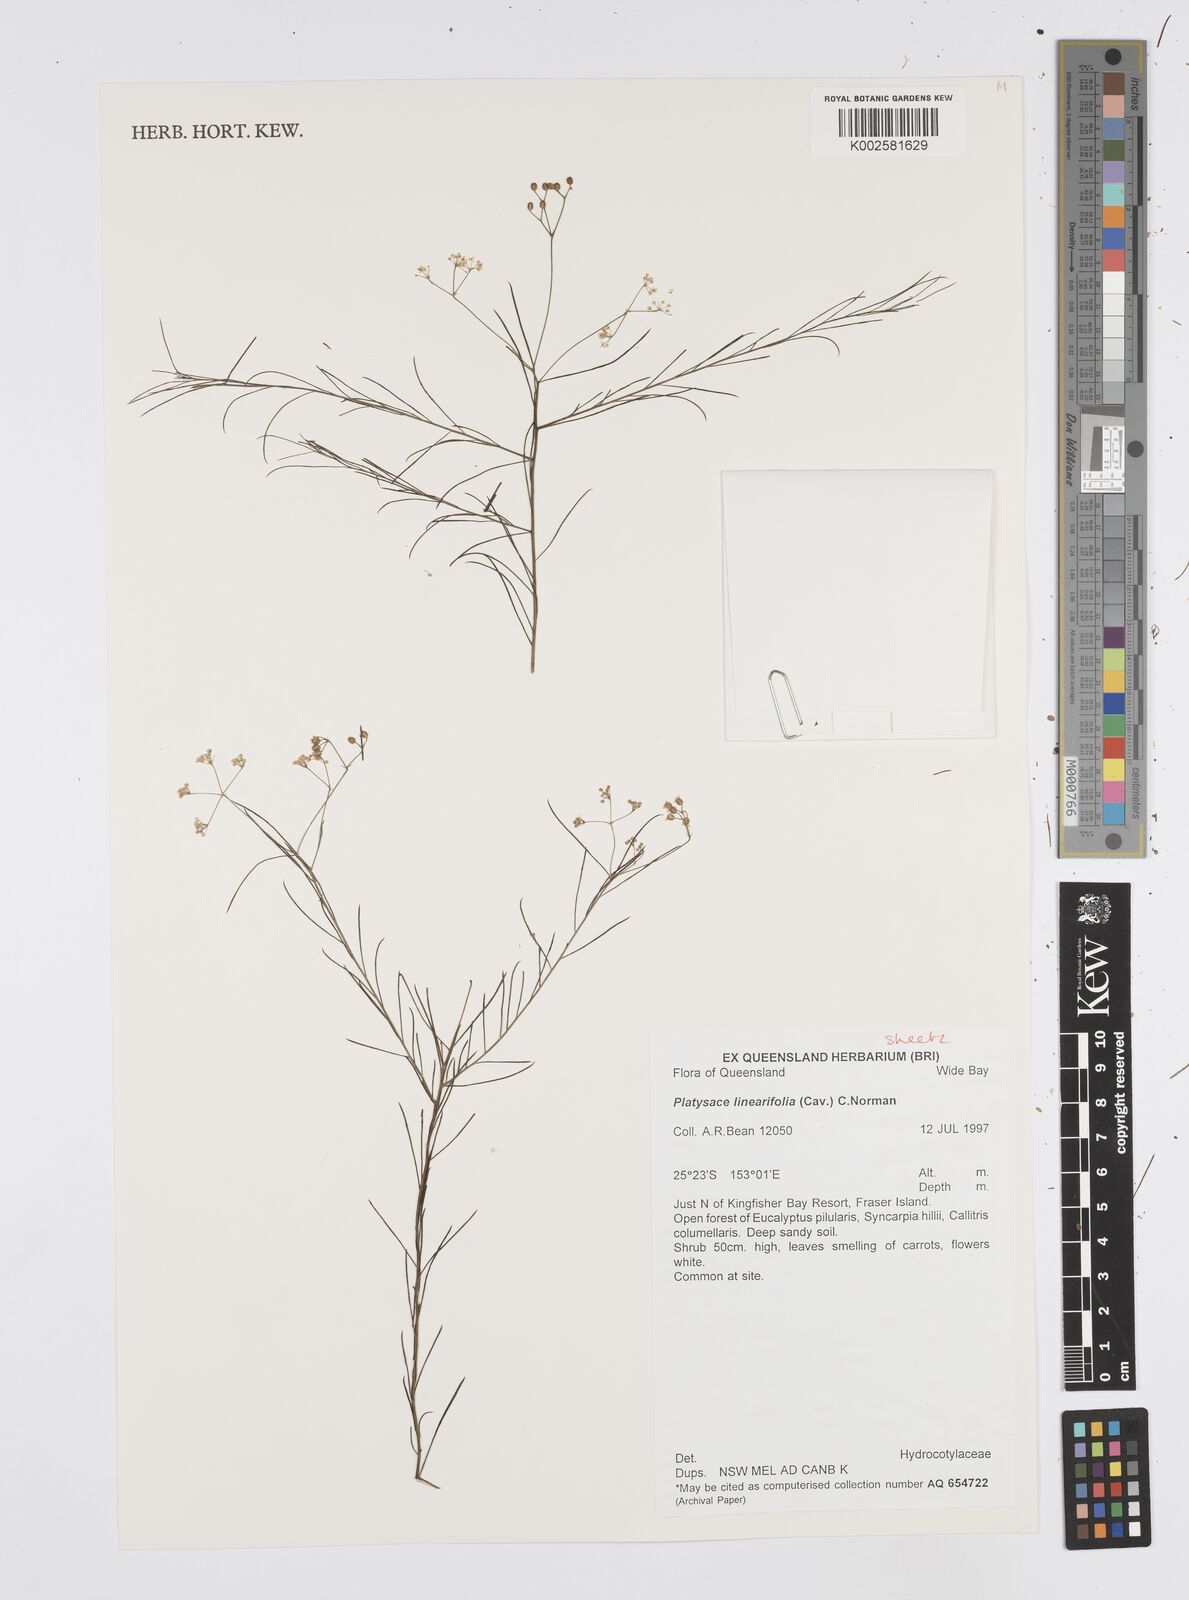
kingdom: Plantae
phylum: Tracheophyta
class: Magnoliopsida
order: Apiales
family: Apiaceae
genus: Platysace
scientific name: Platysace linearifolia
